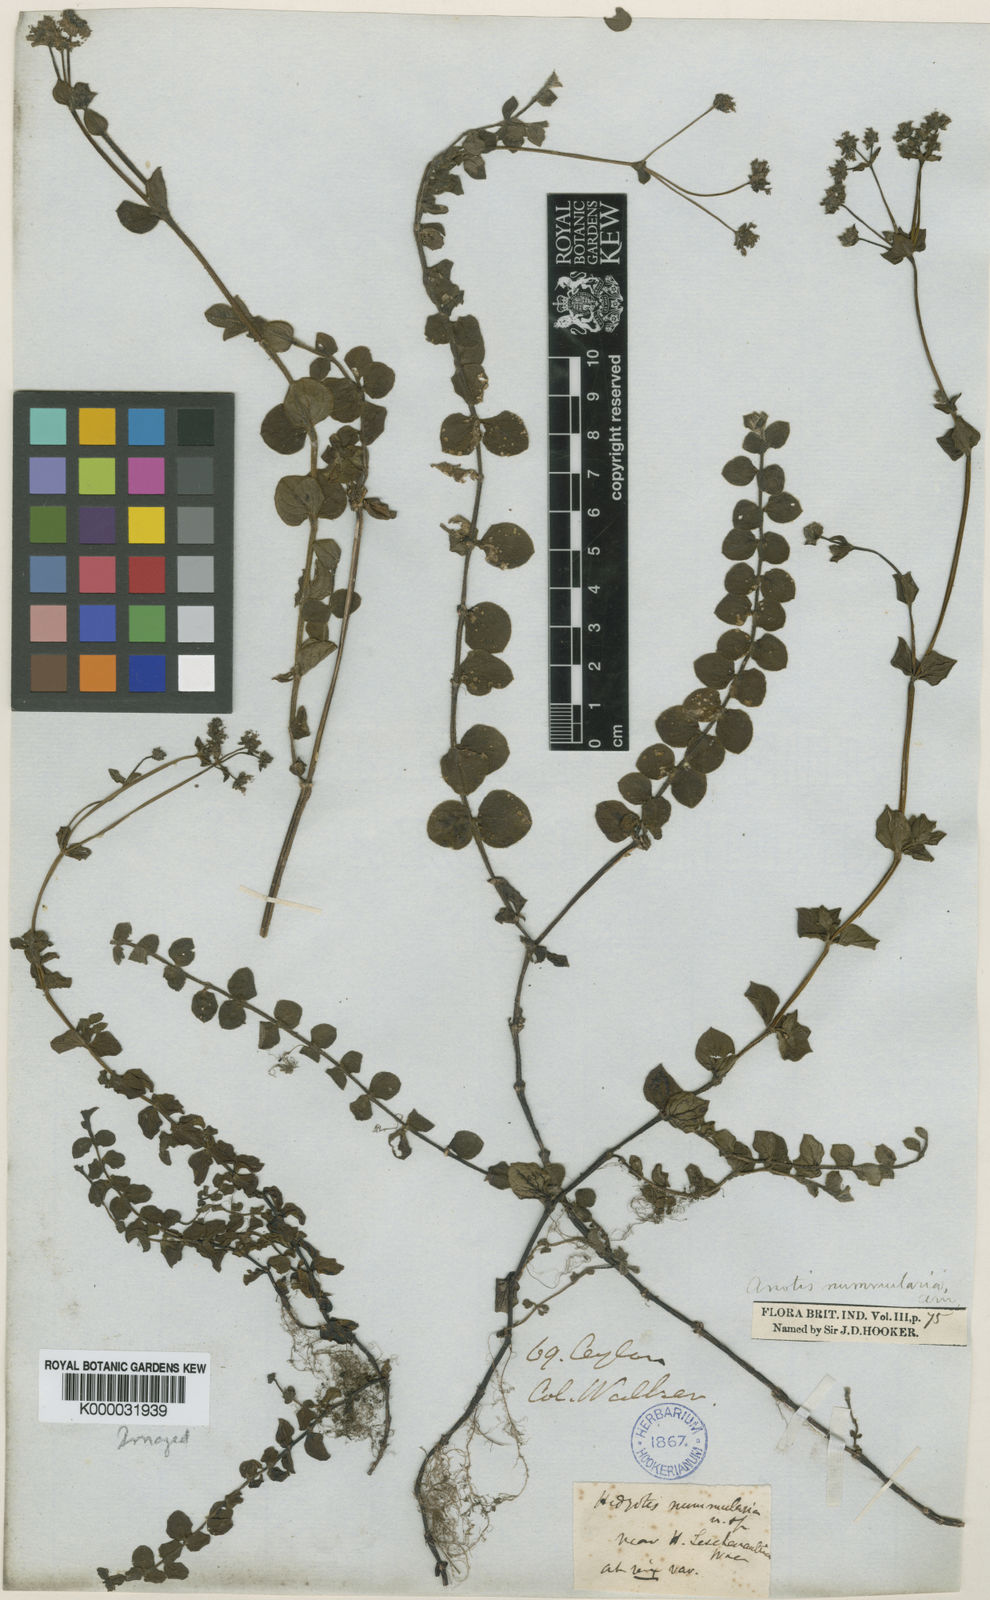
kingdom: Plantae
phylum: Tracheophyta
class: Magnoliopsida
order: Gentianales
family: Rubiaceae
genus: Neanotis
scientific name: Neanotis nummularia
